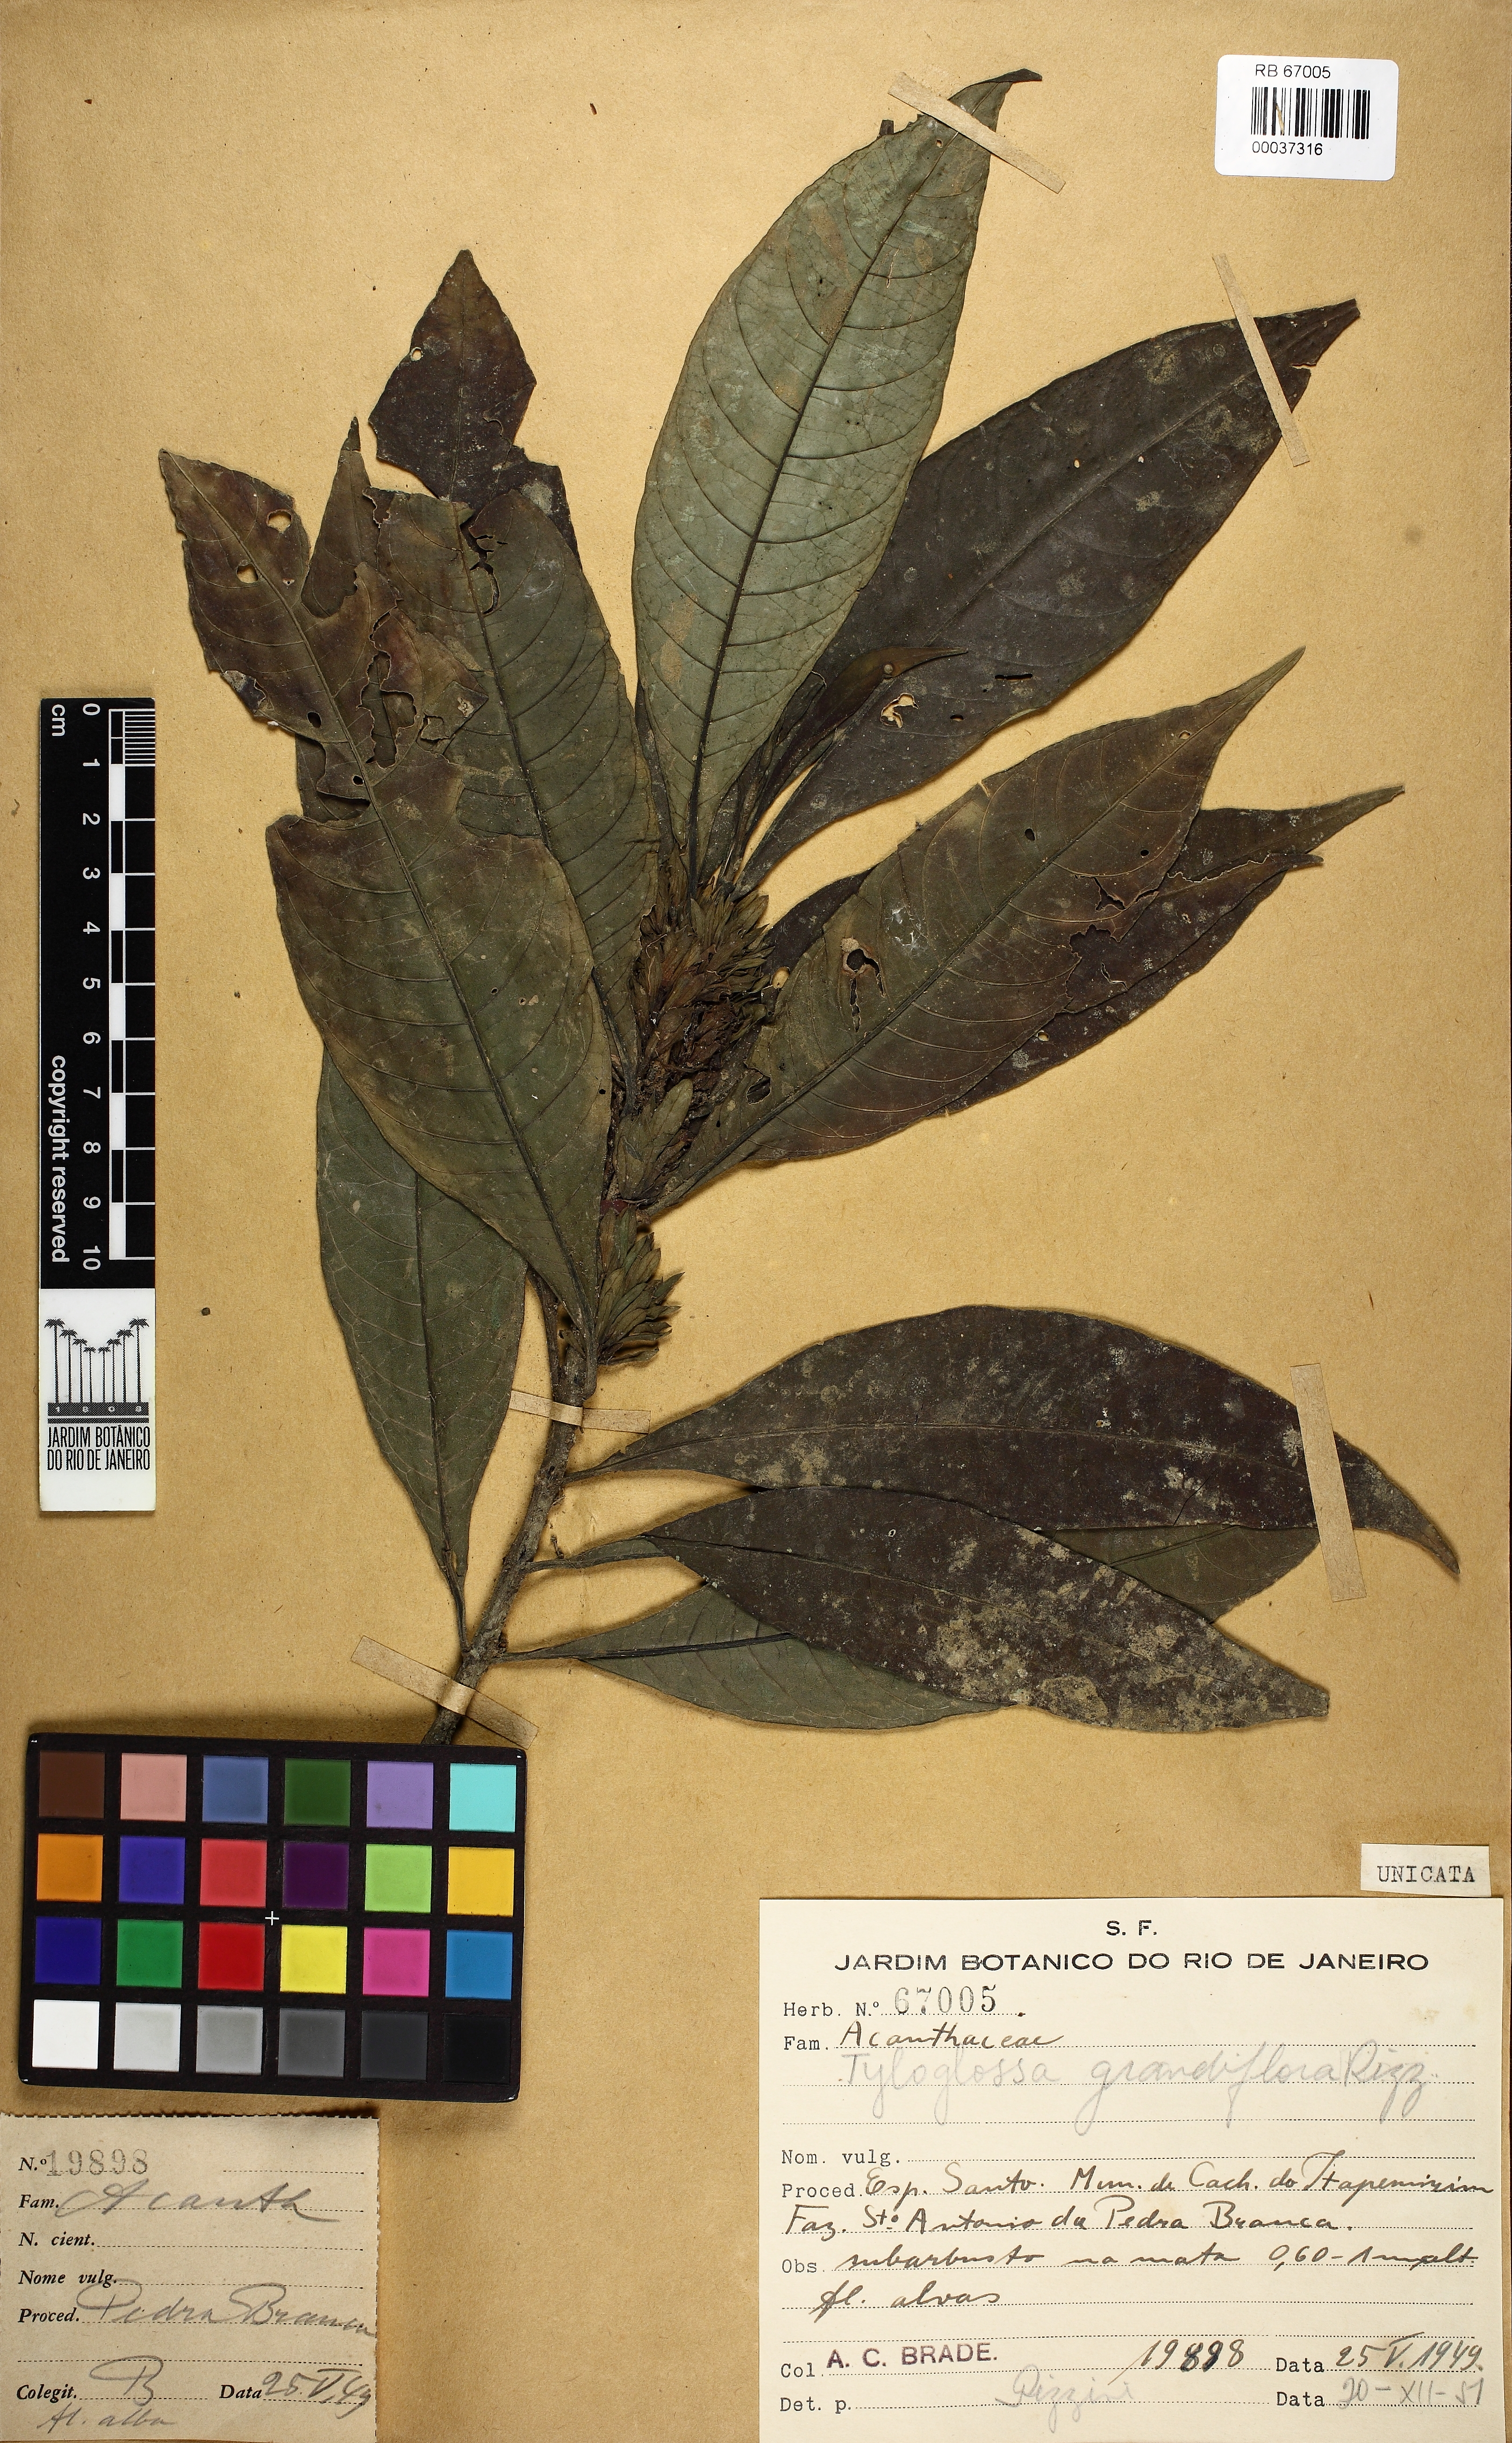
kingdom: Plantae
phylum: Tracheophyta
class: Magnoliopsida
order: Lamiales
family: Acanthaceae
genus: Justicia
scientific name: Justicia Tyloglossa grandiflora
